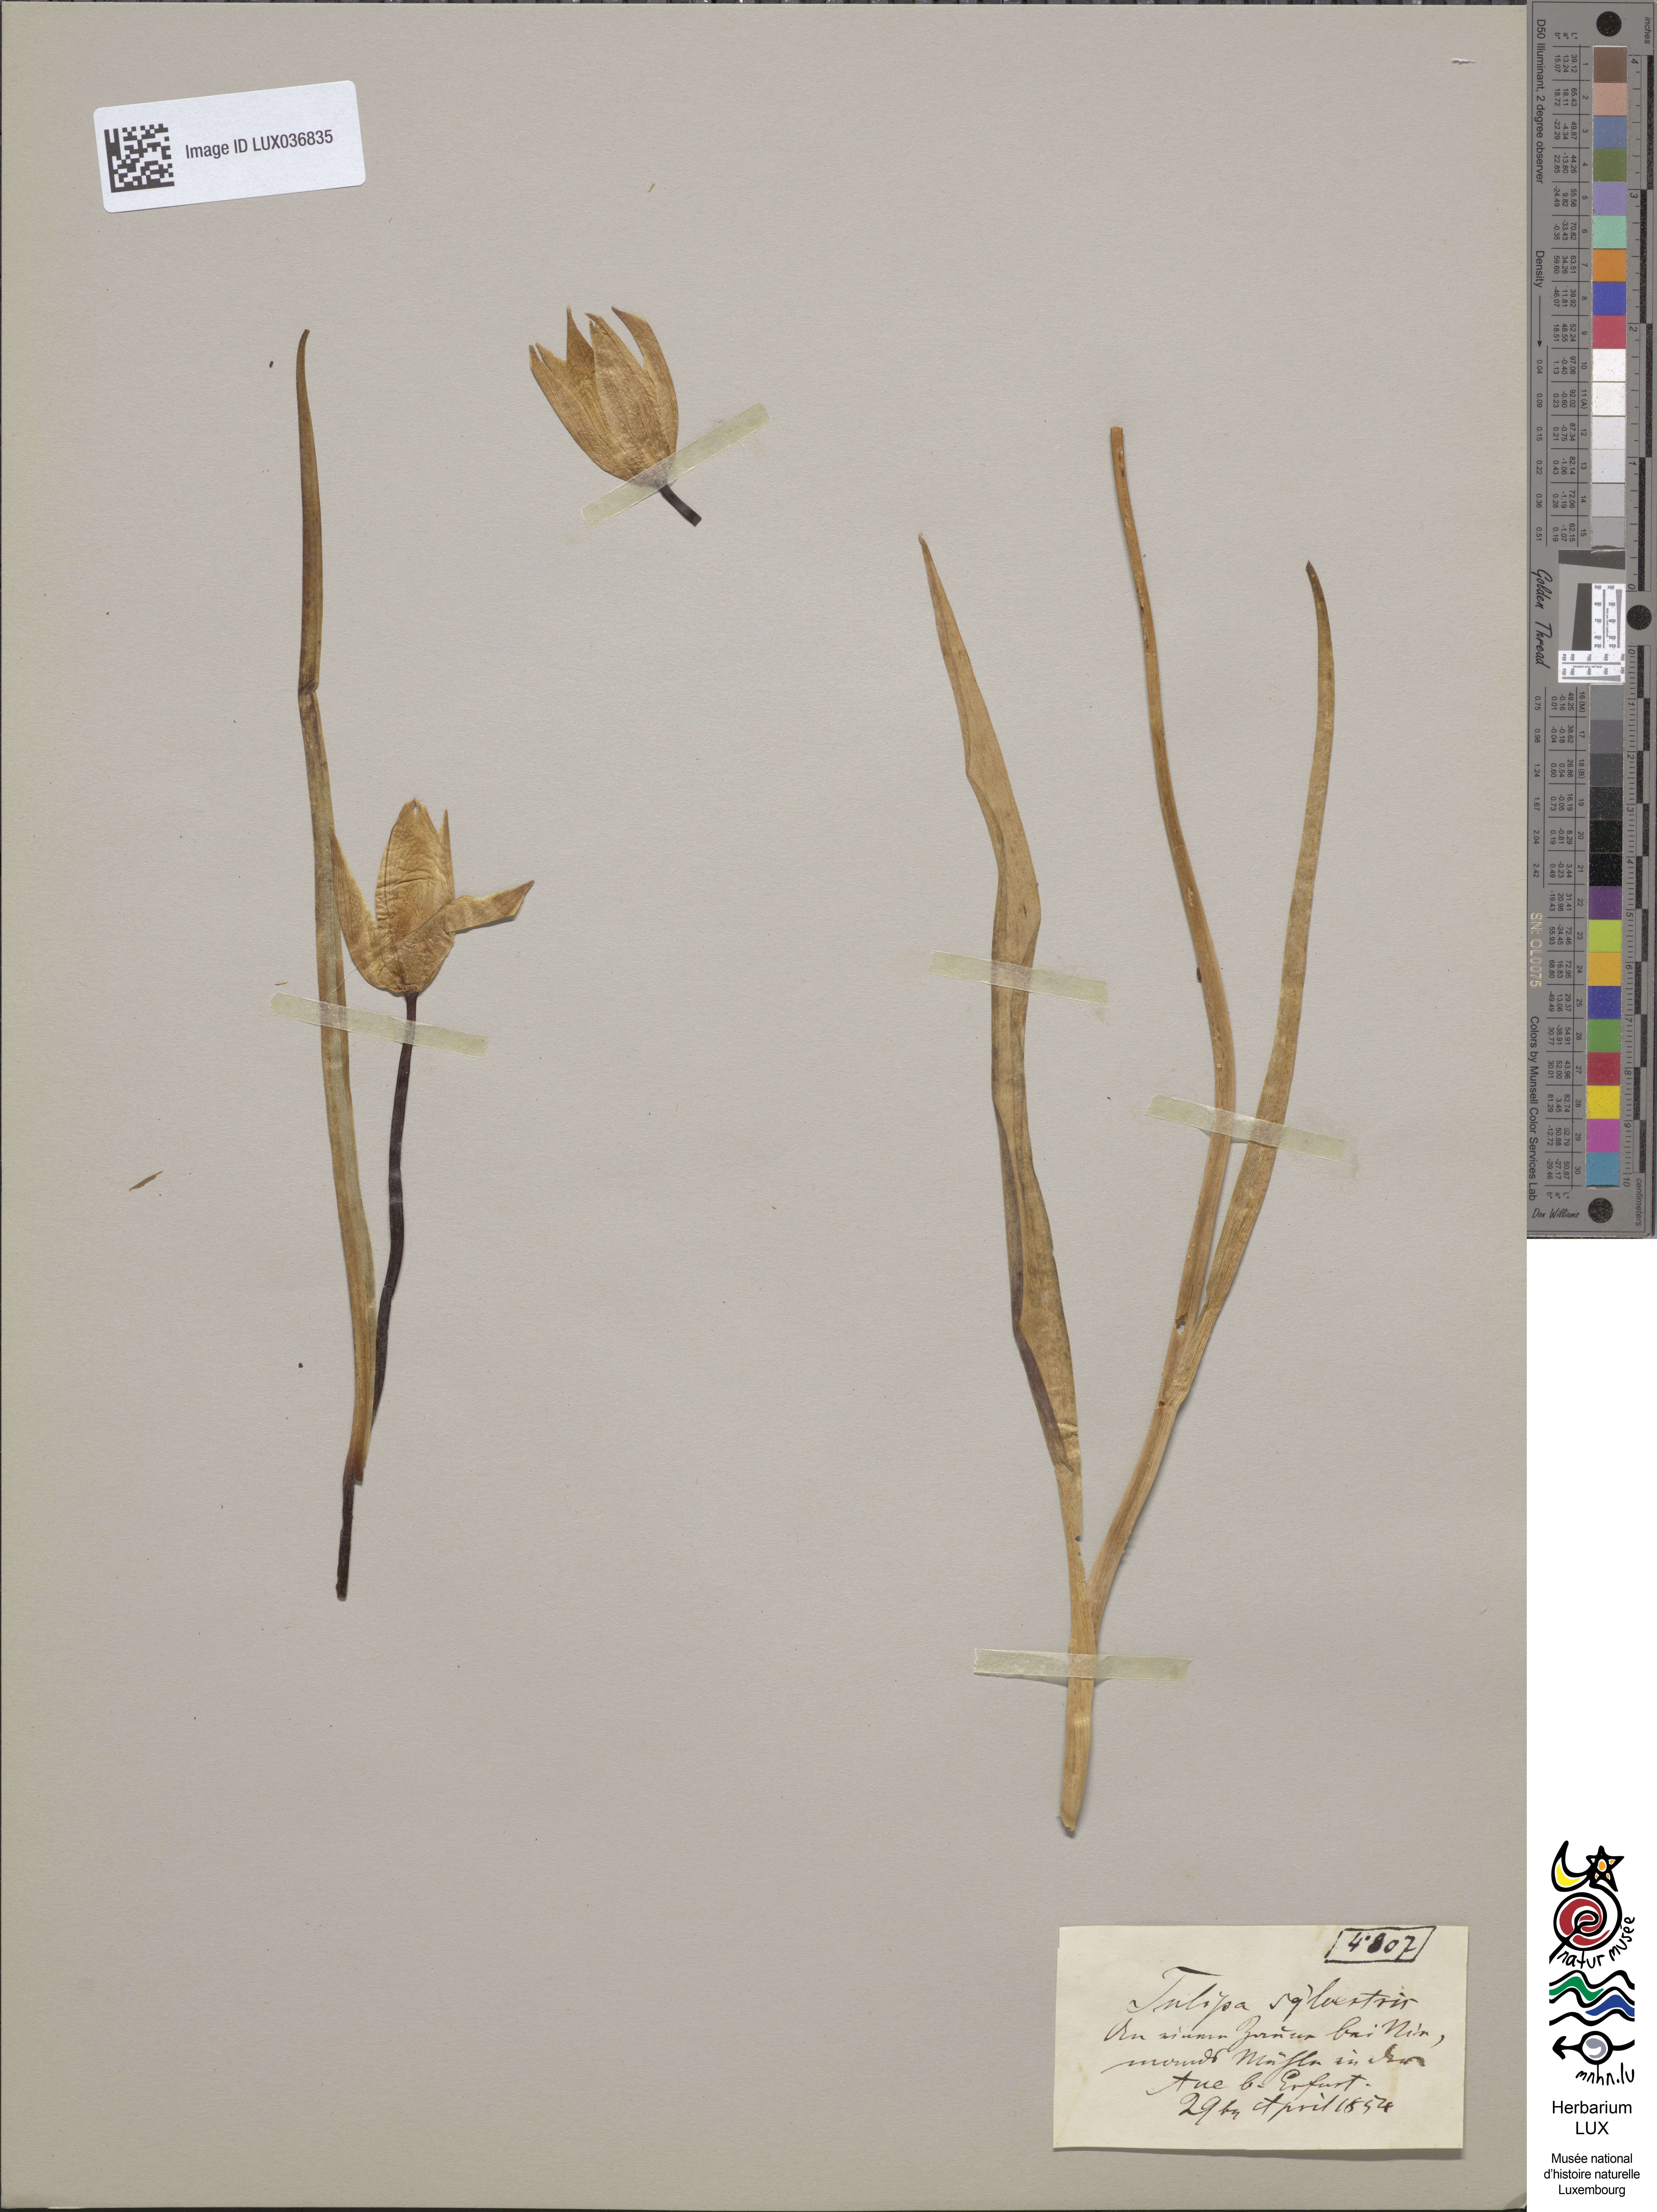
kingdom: Plantae
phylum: Tracheophyta
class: Liliopsida
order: Liliales
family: Liliaceae
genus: Tulipa
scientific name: Tulipa sylvestris
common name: Wild tulip
